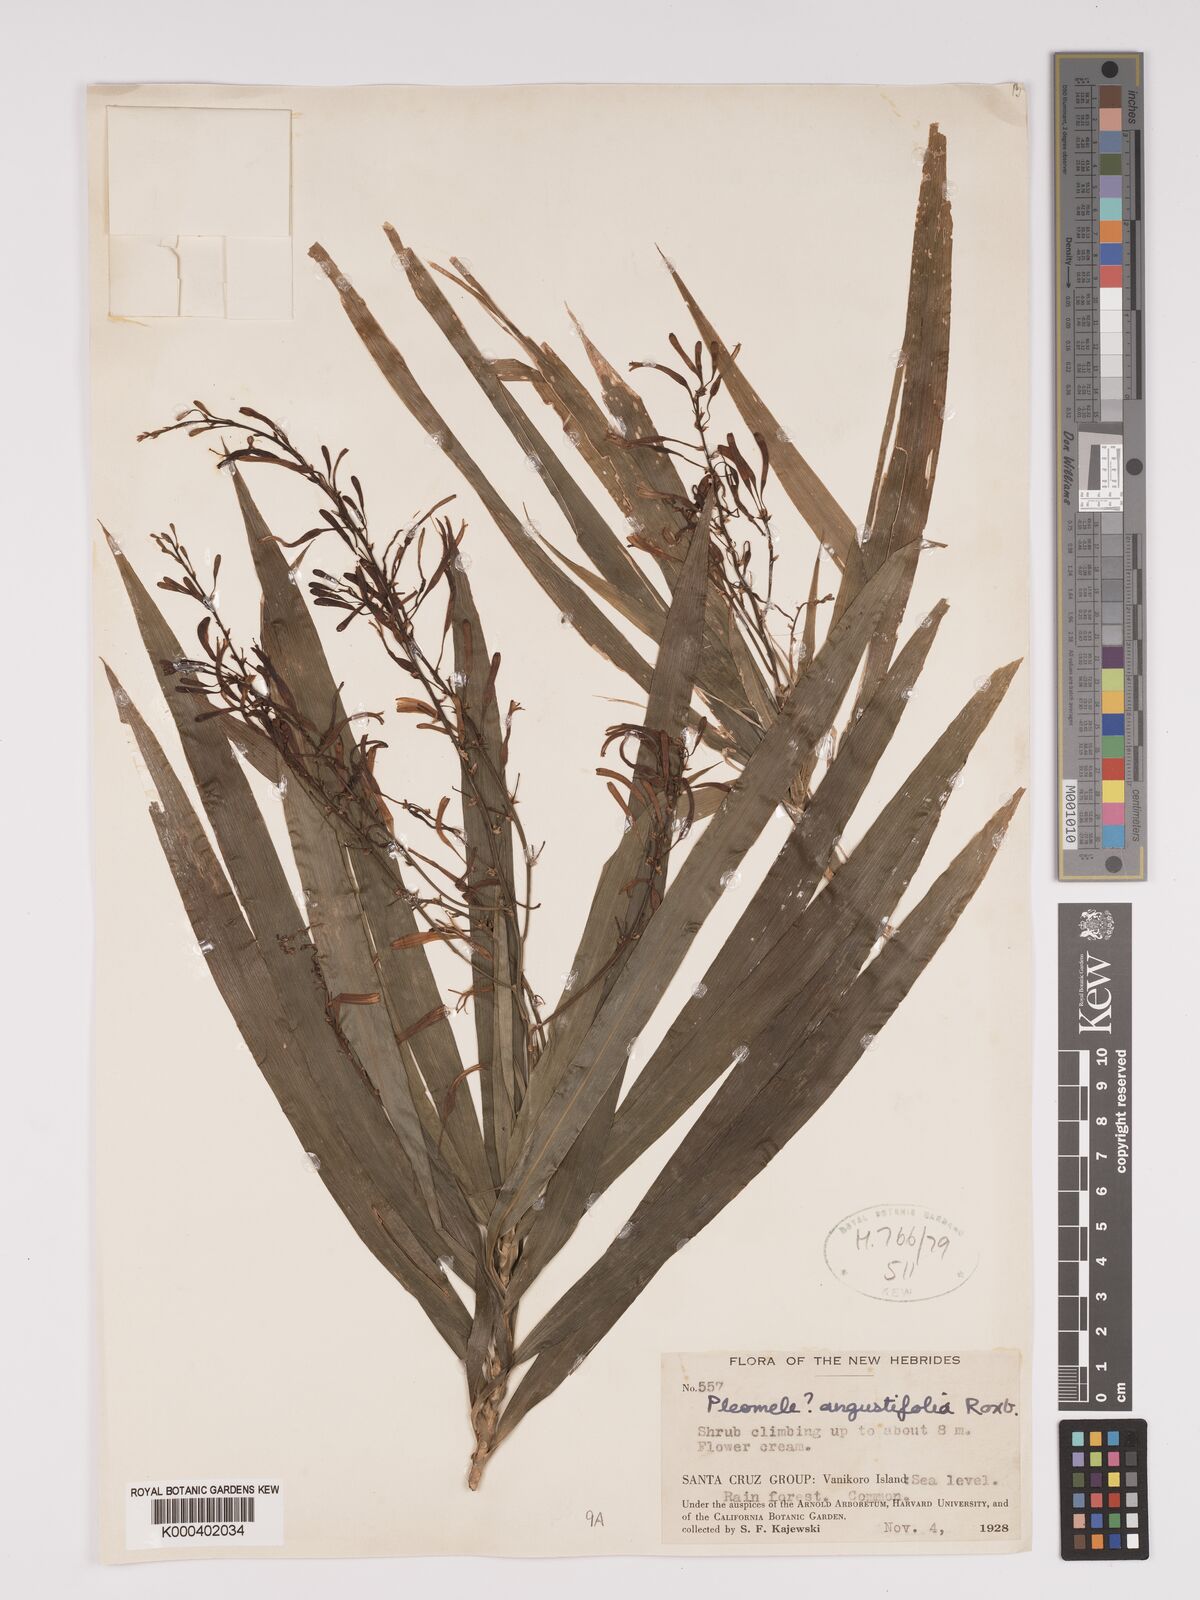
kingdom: Plantae
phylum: Tracheophyta
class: Liliopsida
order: Asparagales
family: Asparagaceae
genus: Dracaena
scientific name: Dracaena angustifolia
